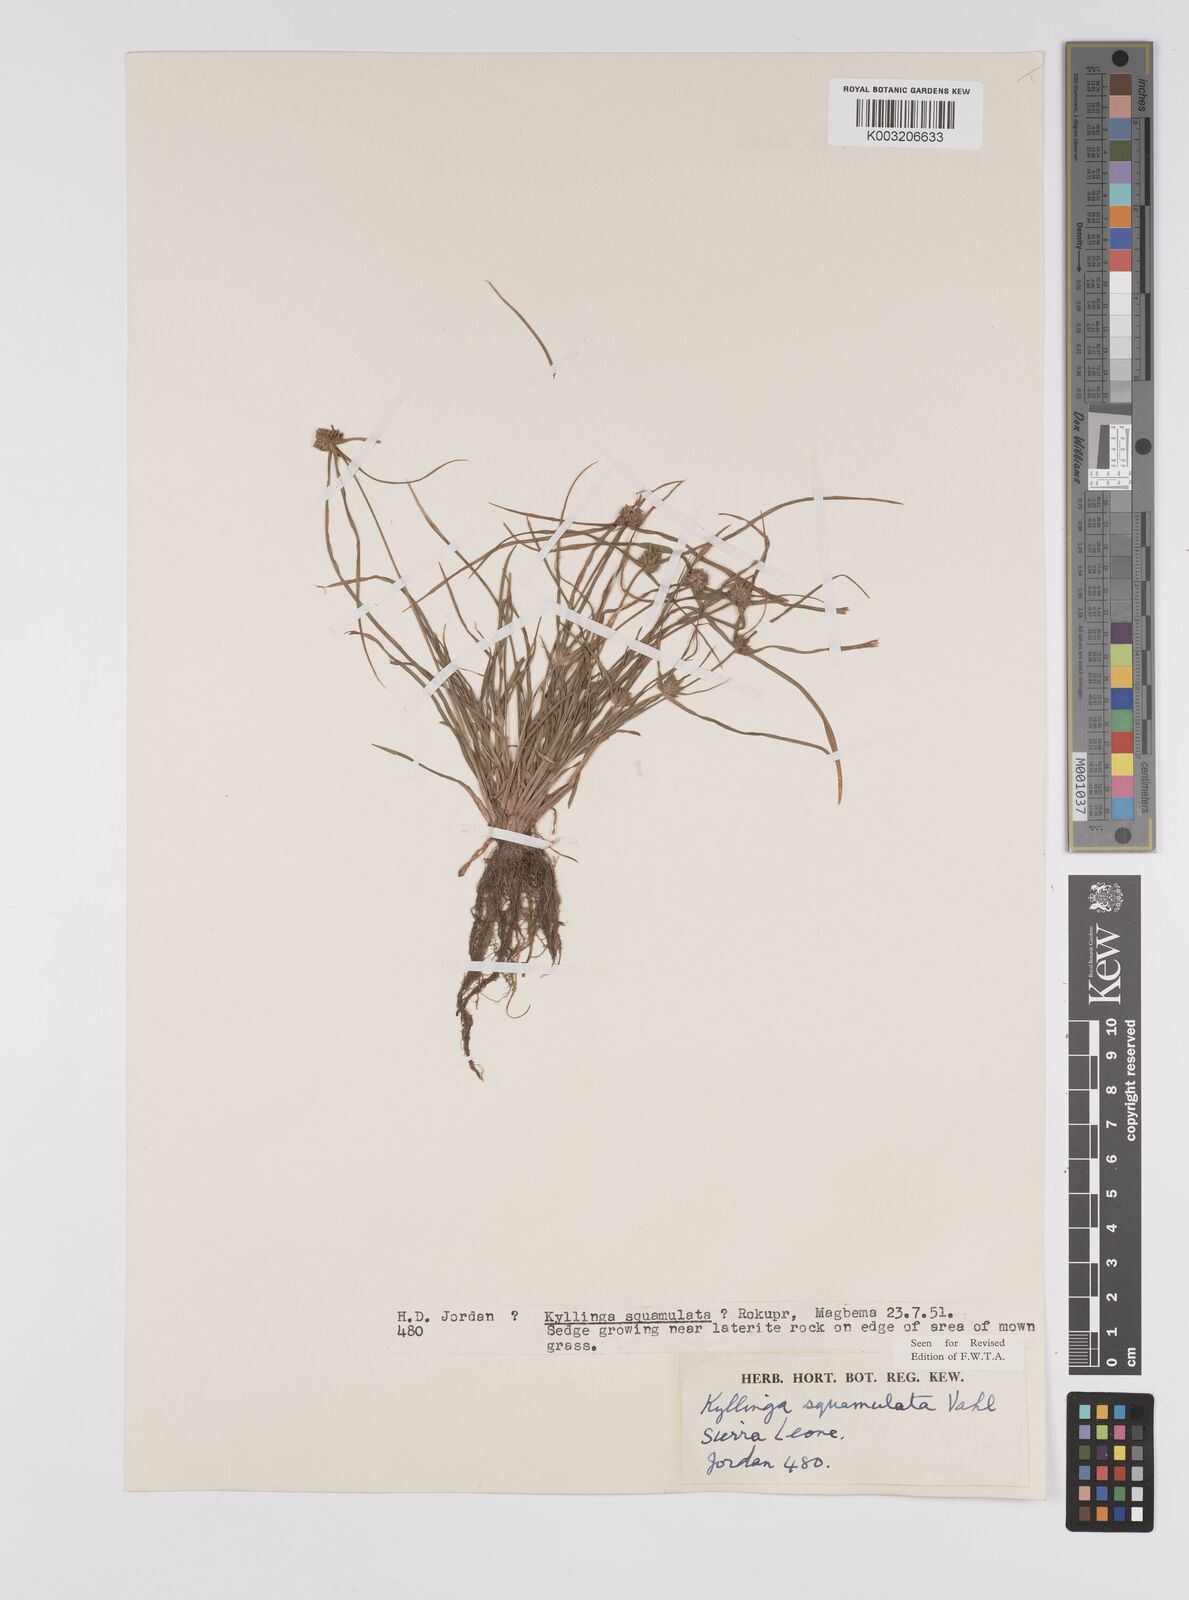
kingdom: Plantae
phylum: Tracheophyta
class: Liliopsida
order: Poales
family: Cyperaceae
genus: Cyperus
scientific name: Cyperus distans
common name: Slender cyperus
